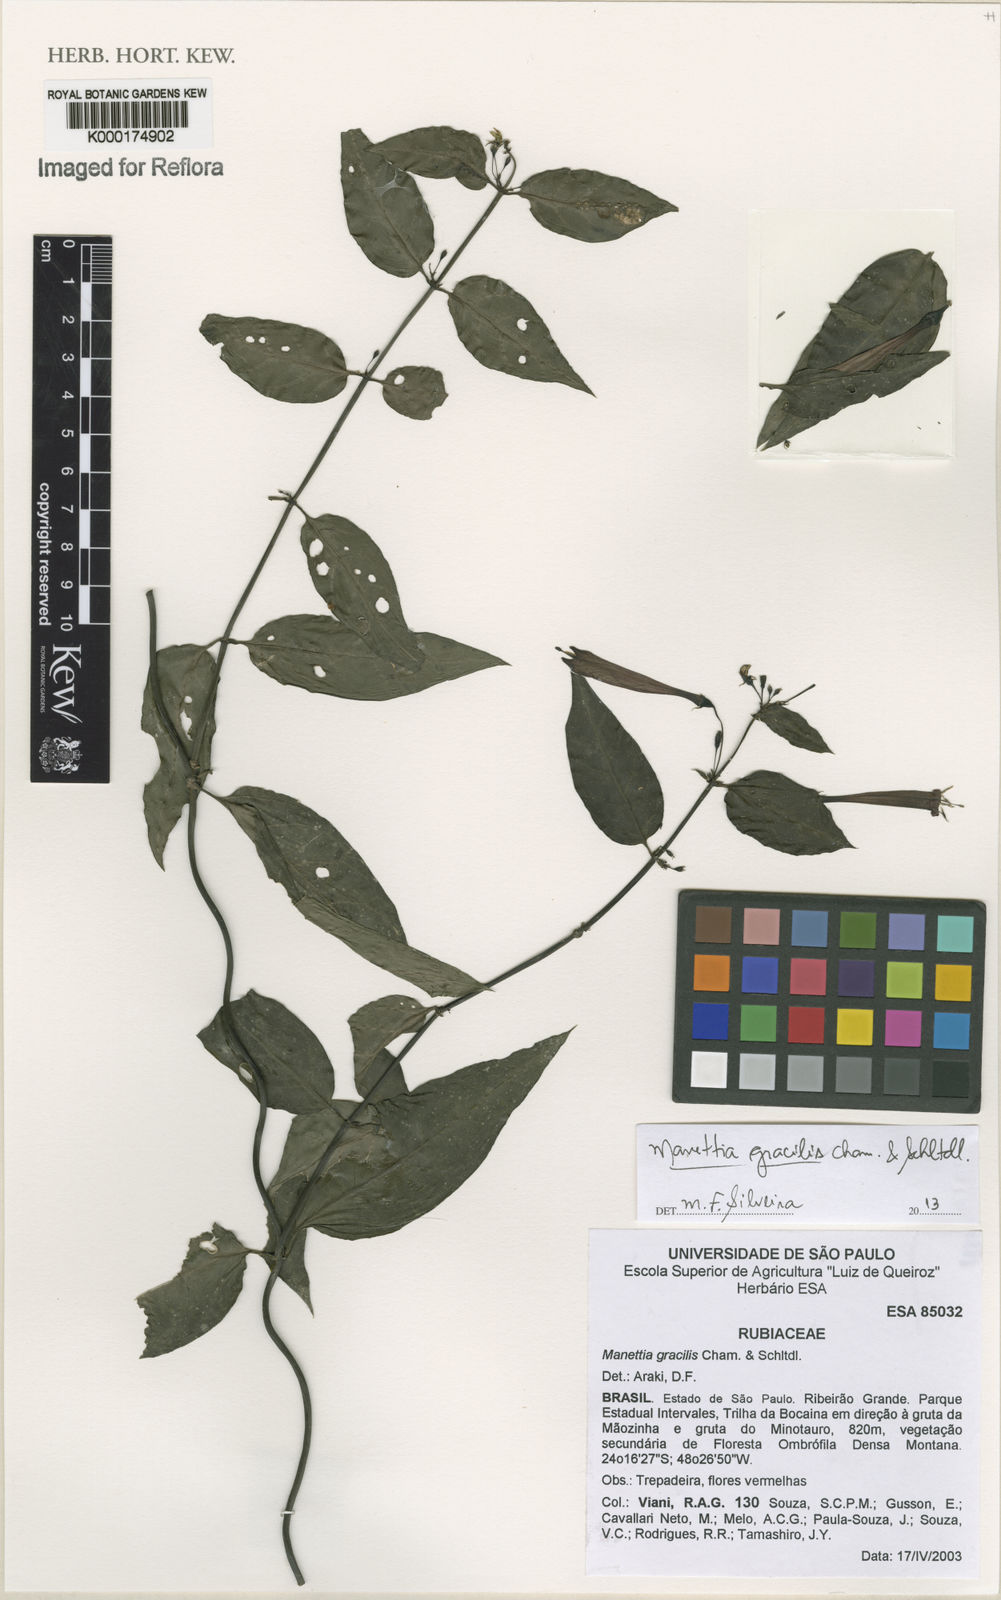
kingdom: Plantae
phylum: Tracheophyta
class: Magnoliopsida
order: Gentianales
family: Rubiaceae
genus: Manettia
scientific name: Manettia gracilis
